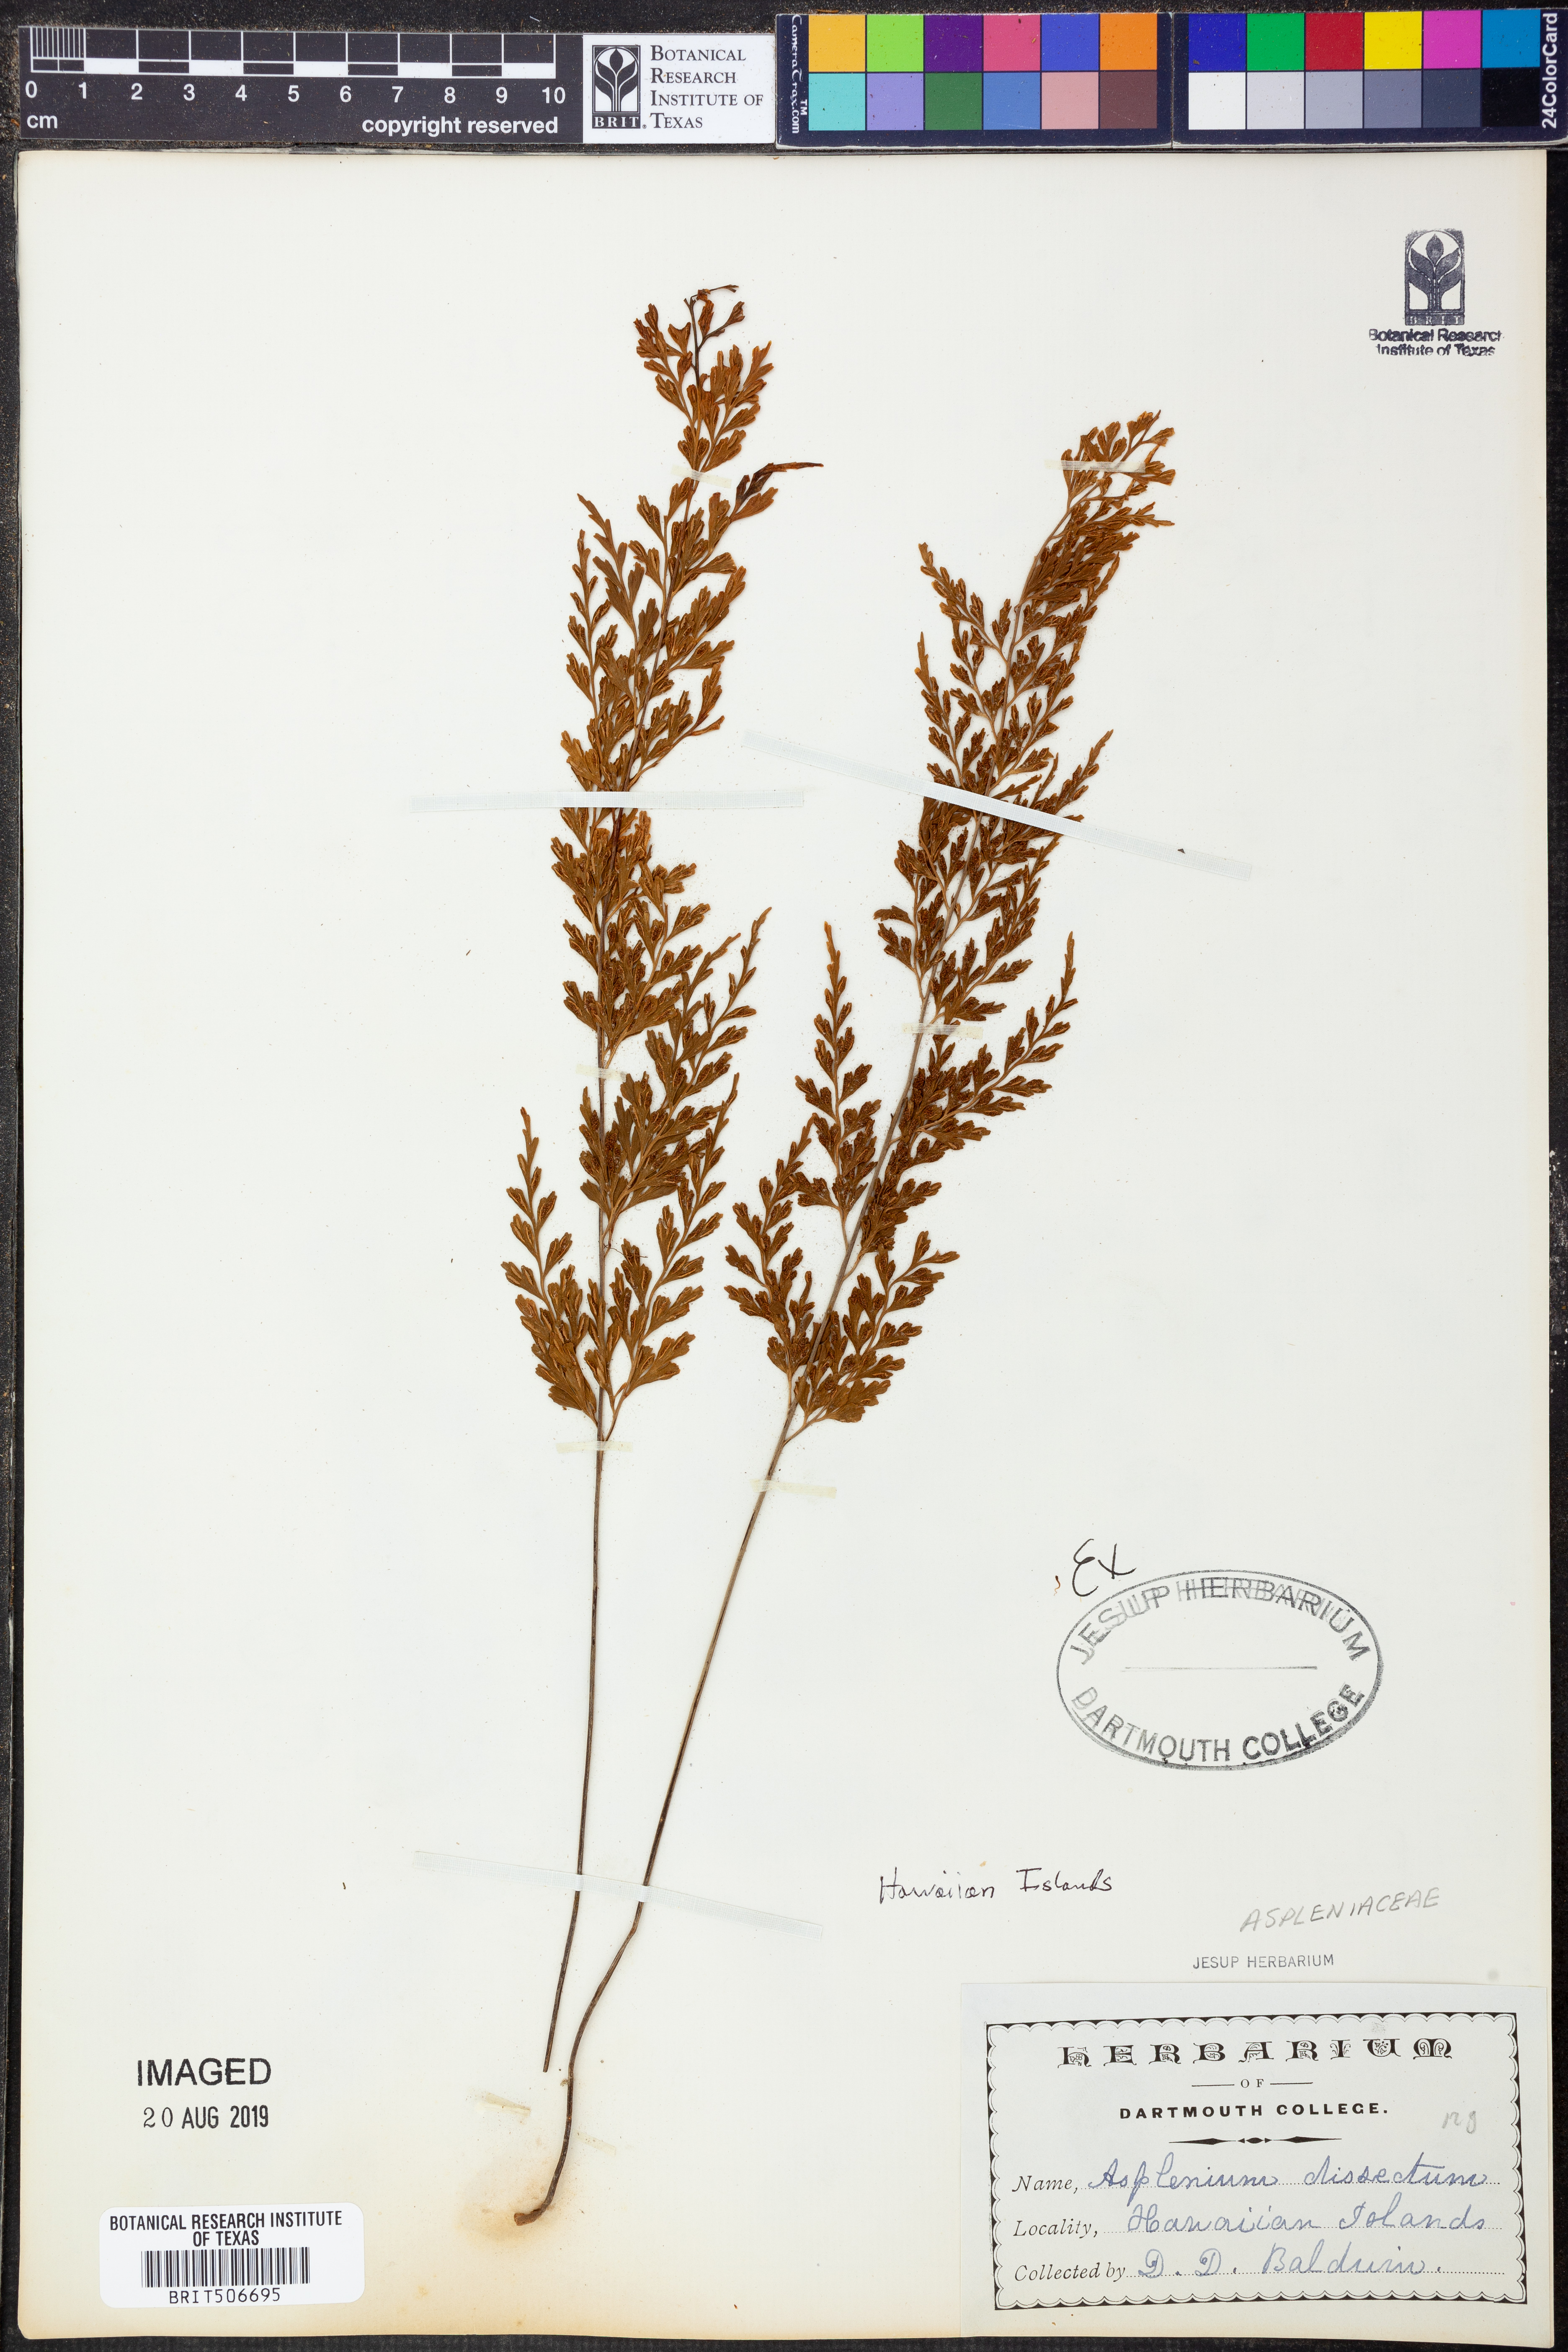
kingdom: Plantae
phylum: Tracheophyta
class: Polypodiopsida
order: Polypodiales
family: Aspleniaceae
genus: Asplenium
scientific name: Asplenium dissectum
